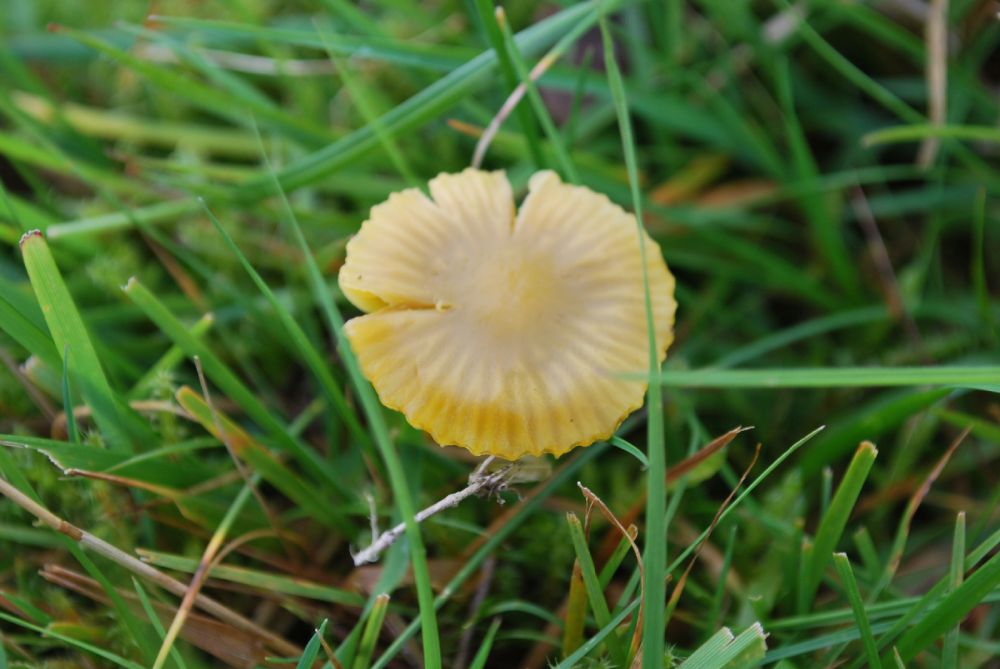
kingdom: Fungi
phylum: Basidiomycota
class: Agaricomycetes
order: Agaricales
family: Hygrophoraceae
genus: Gliophorus
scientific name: Gliophorus psittacinus
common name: papegøje-vokshat
